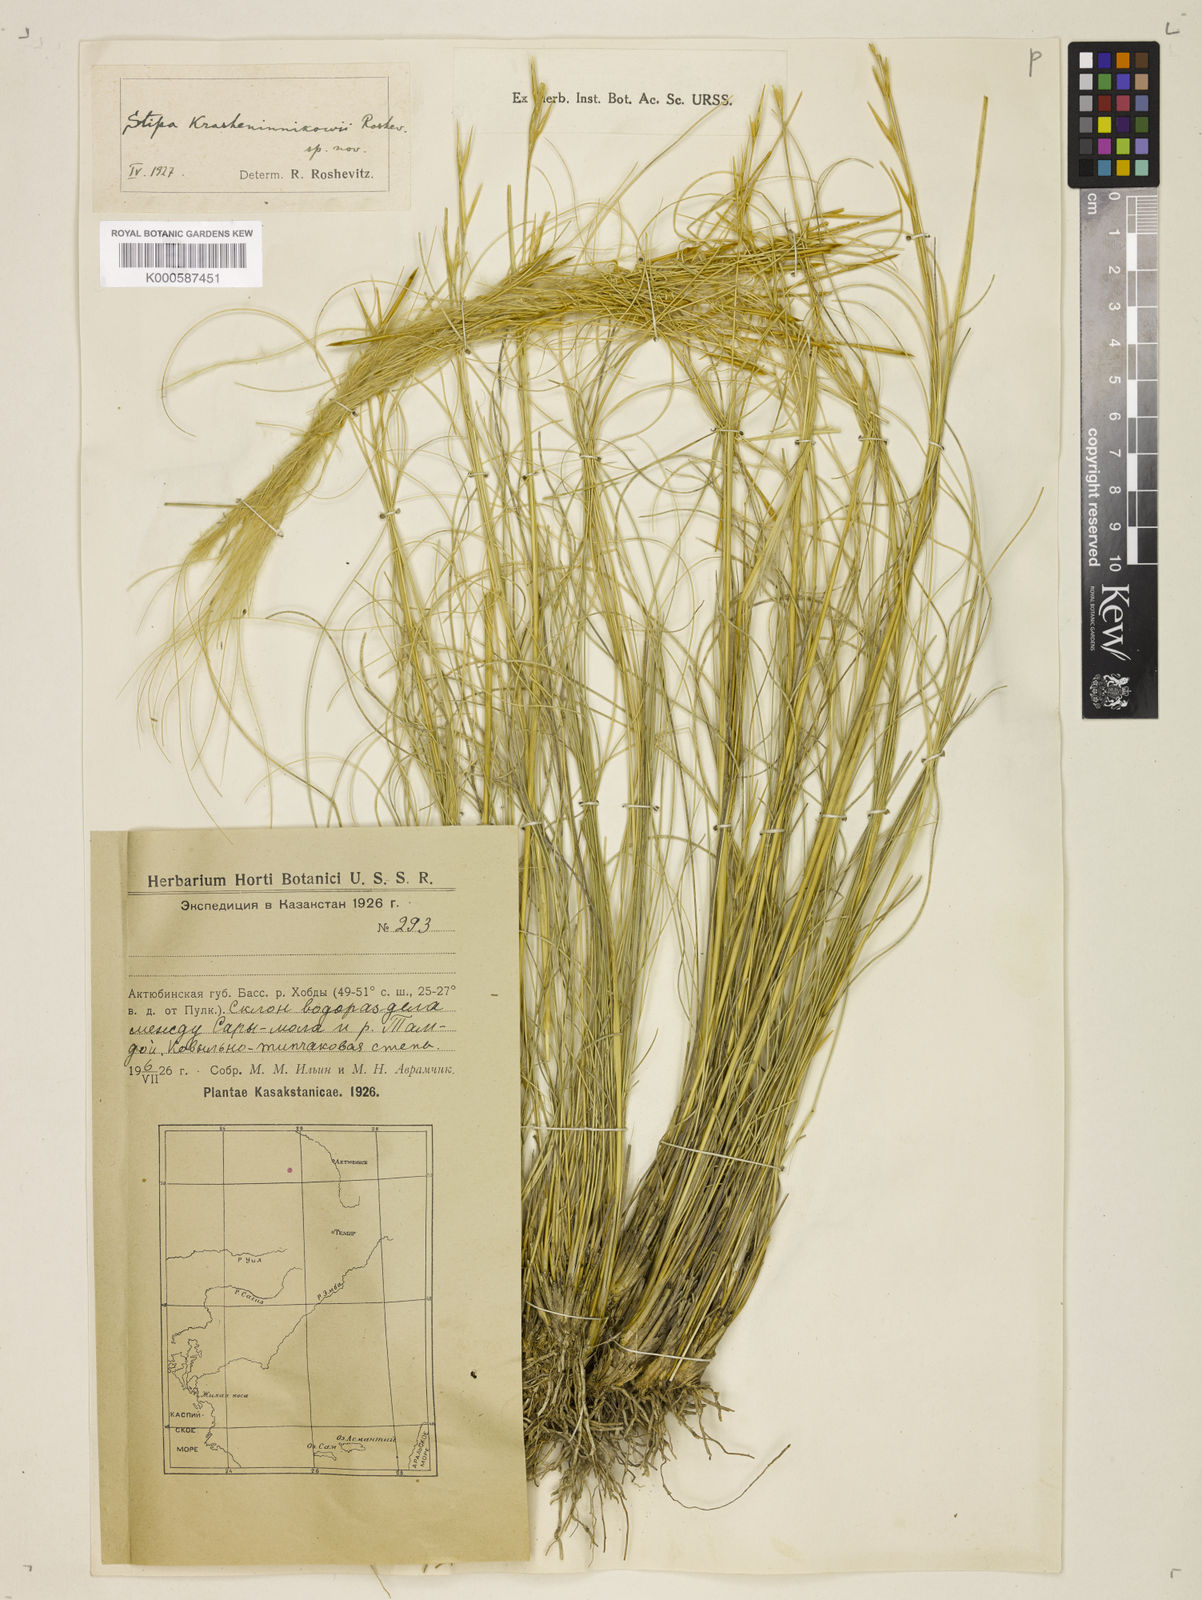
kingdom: Plantae
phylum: Tracheophyta
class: Liliopsida
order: Poales
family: Poaceae
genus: Stipa
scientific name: Stipa
